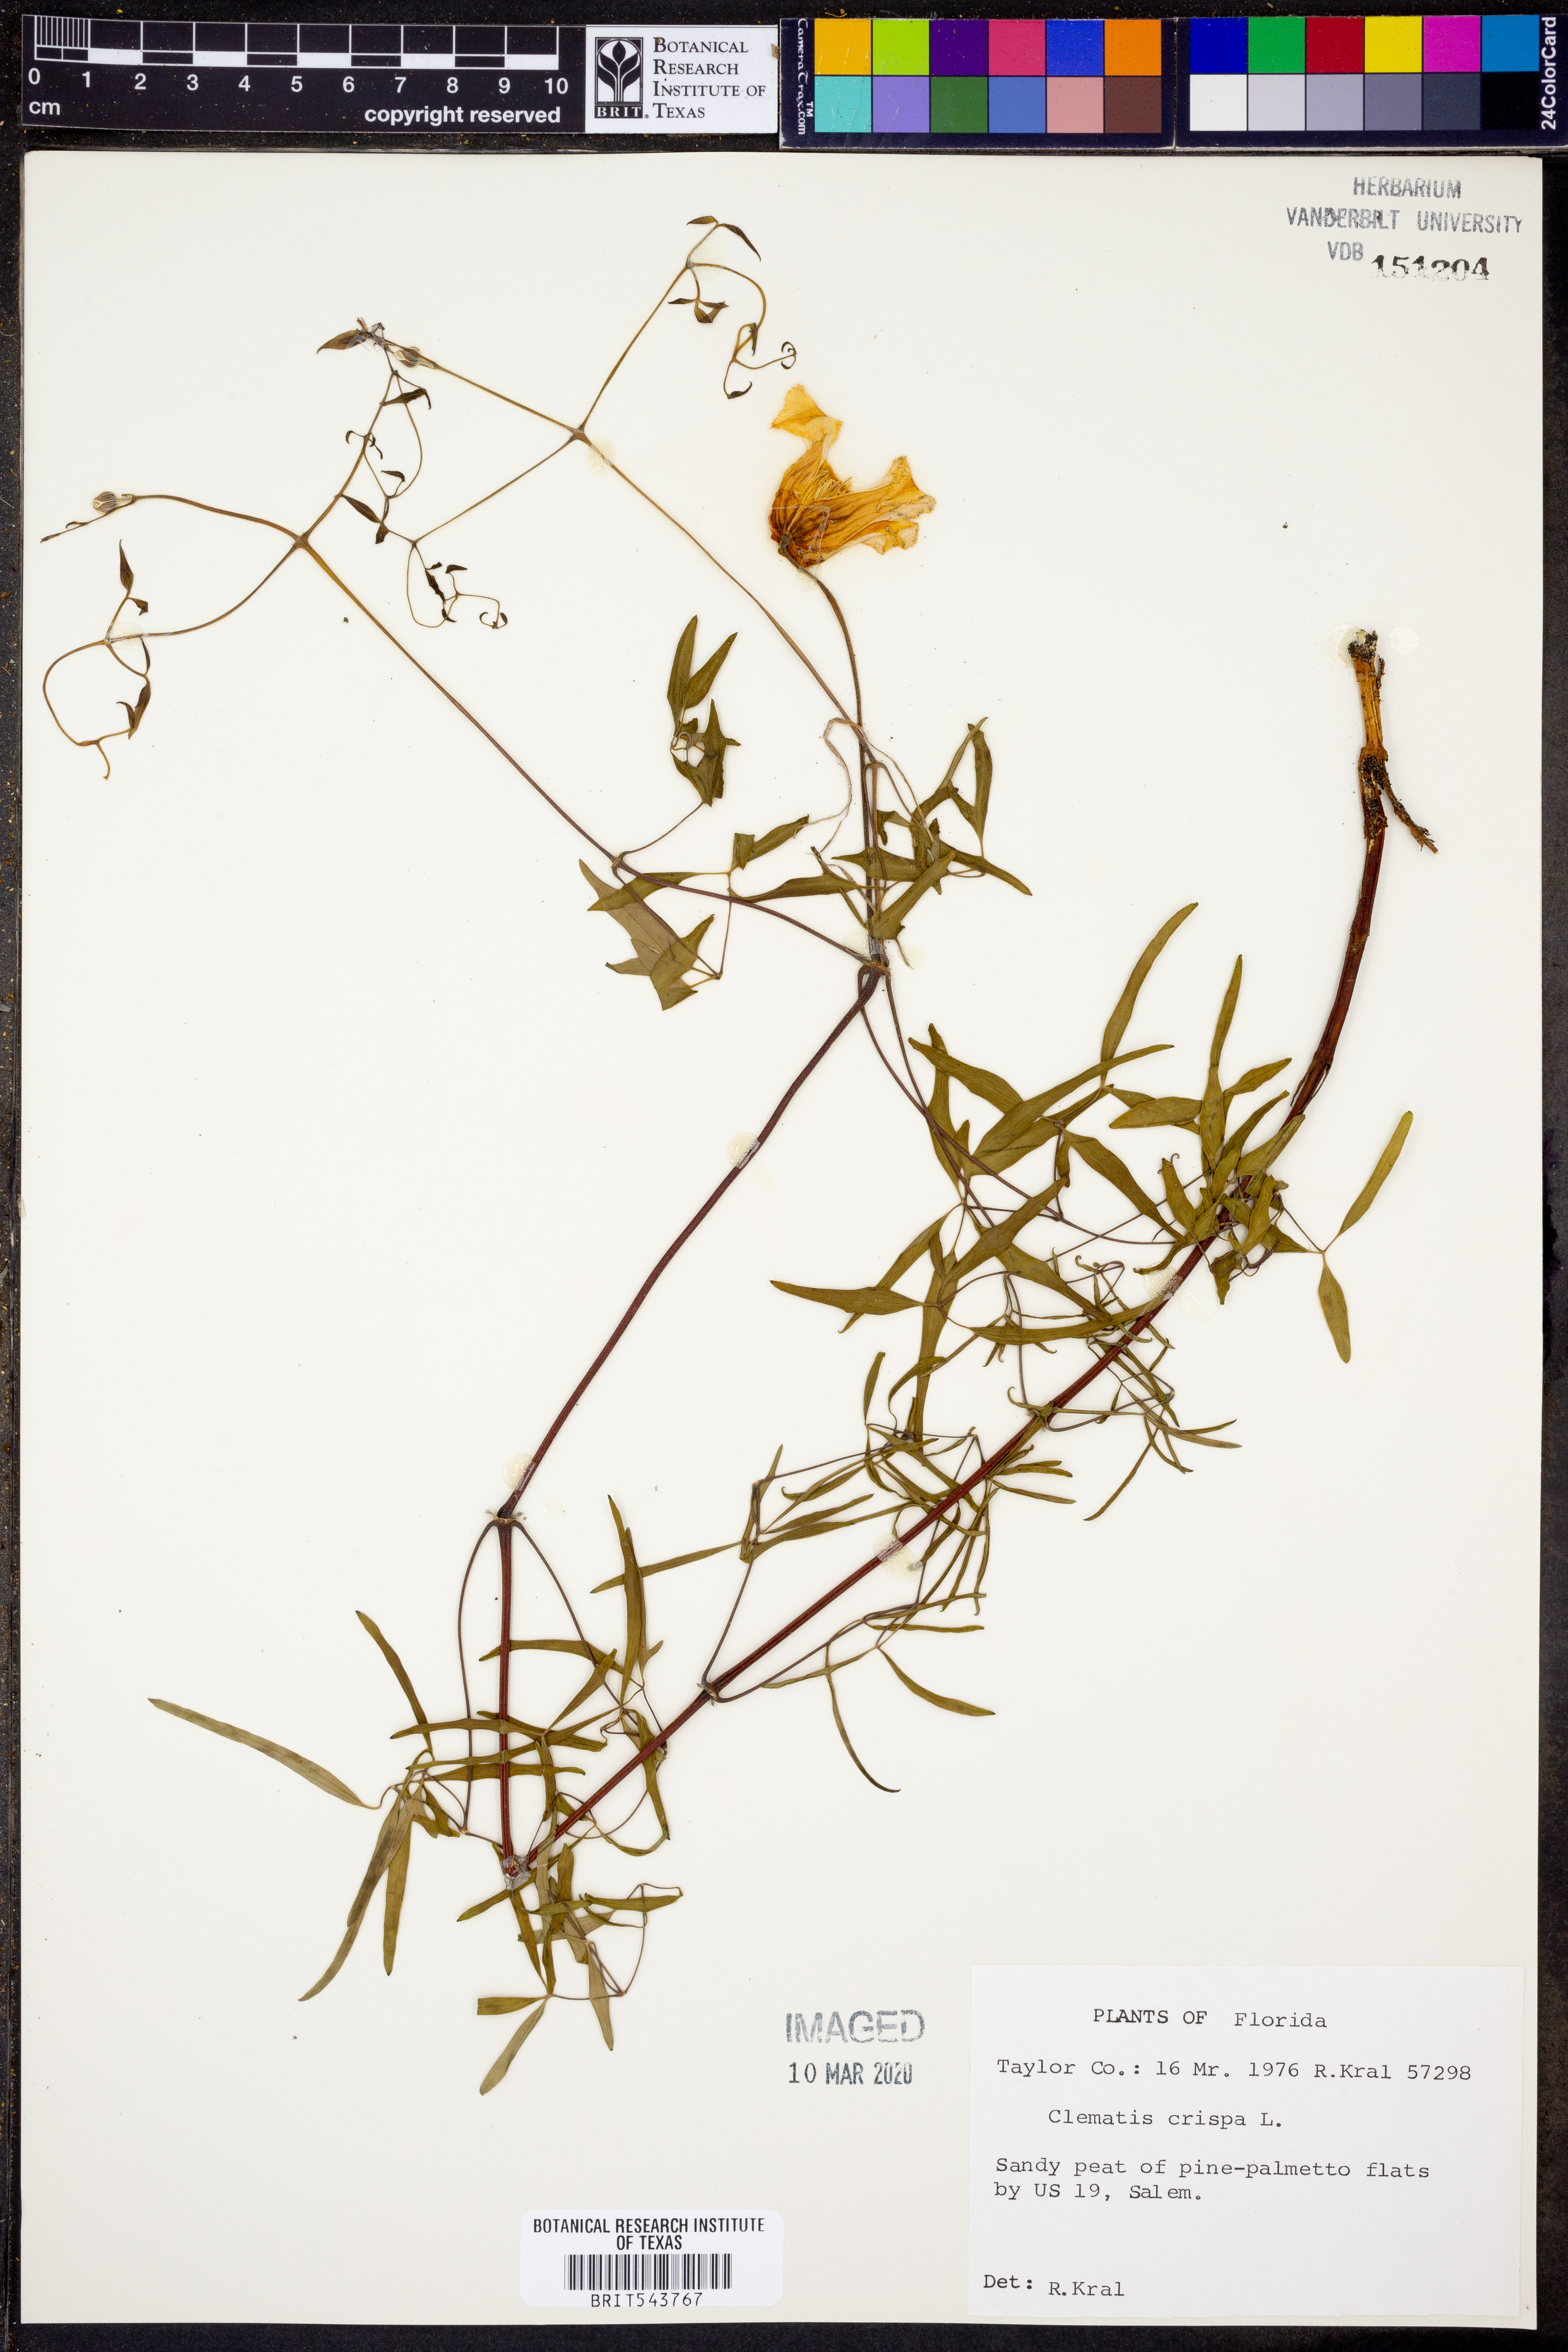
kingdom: Plantae
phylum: Tracheophyta
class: Magnoliopsida
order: Ranunculales
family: Ranunculaceae
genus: Clematis
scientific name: Clematis crispa
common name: Curly clematis
